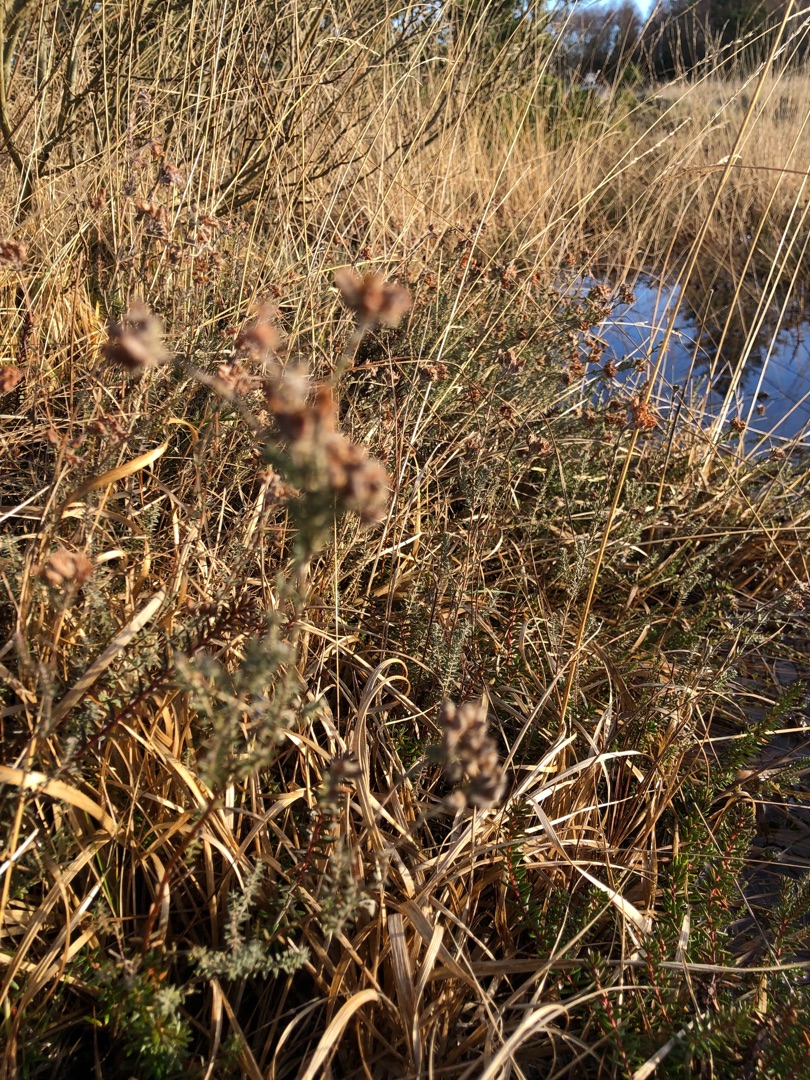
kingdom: Plantae
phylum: Tracheophyta
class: Magnoliopsida
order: Ericales
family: Ericaceae
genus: Erica
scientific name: Erica tetralix
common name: Klokkelyng
